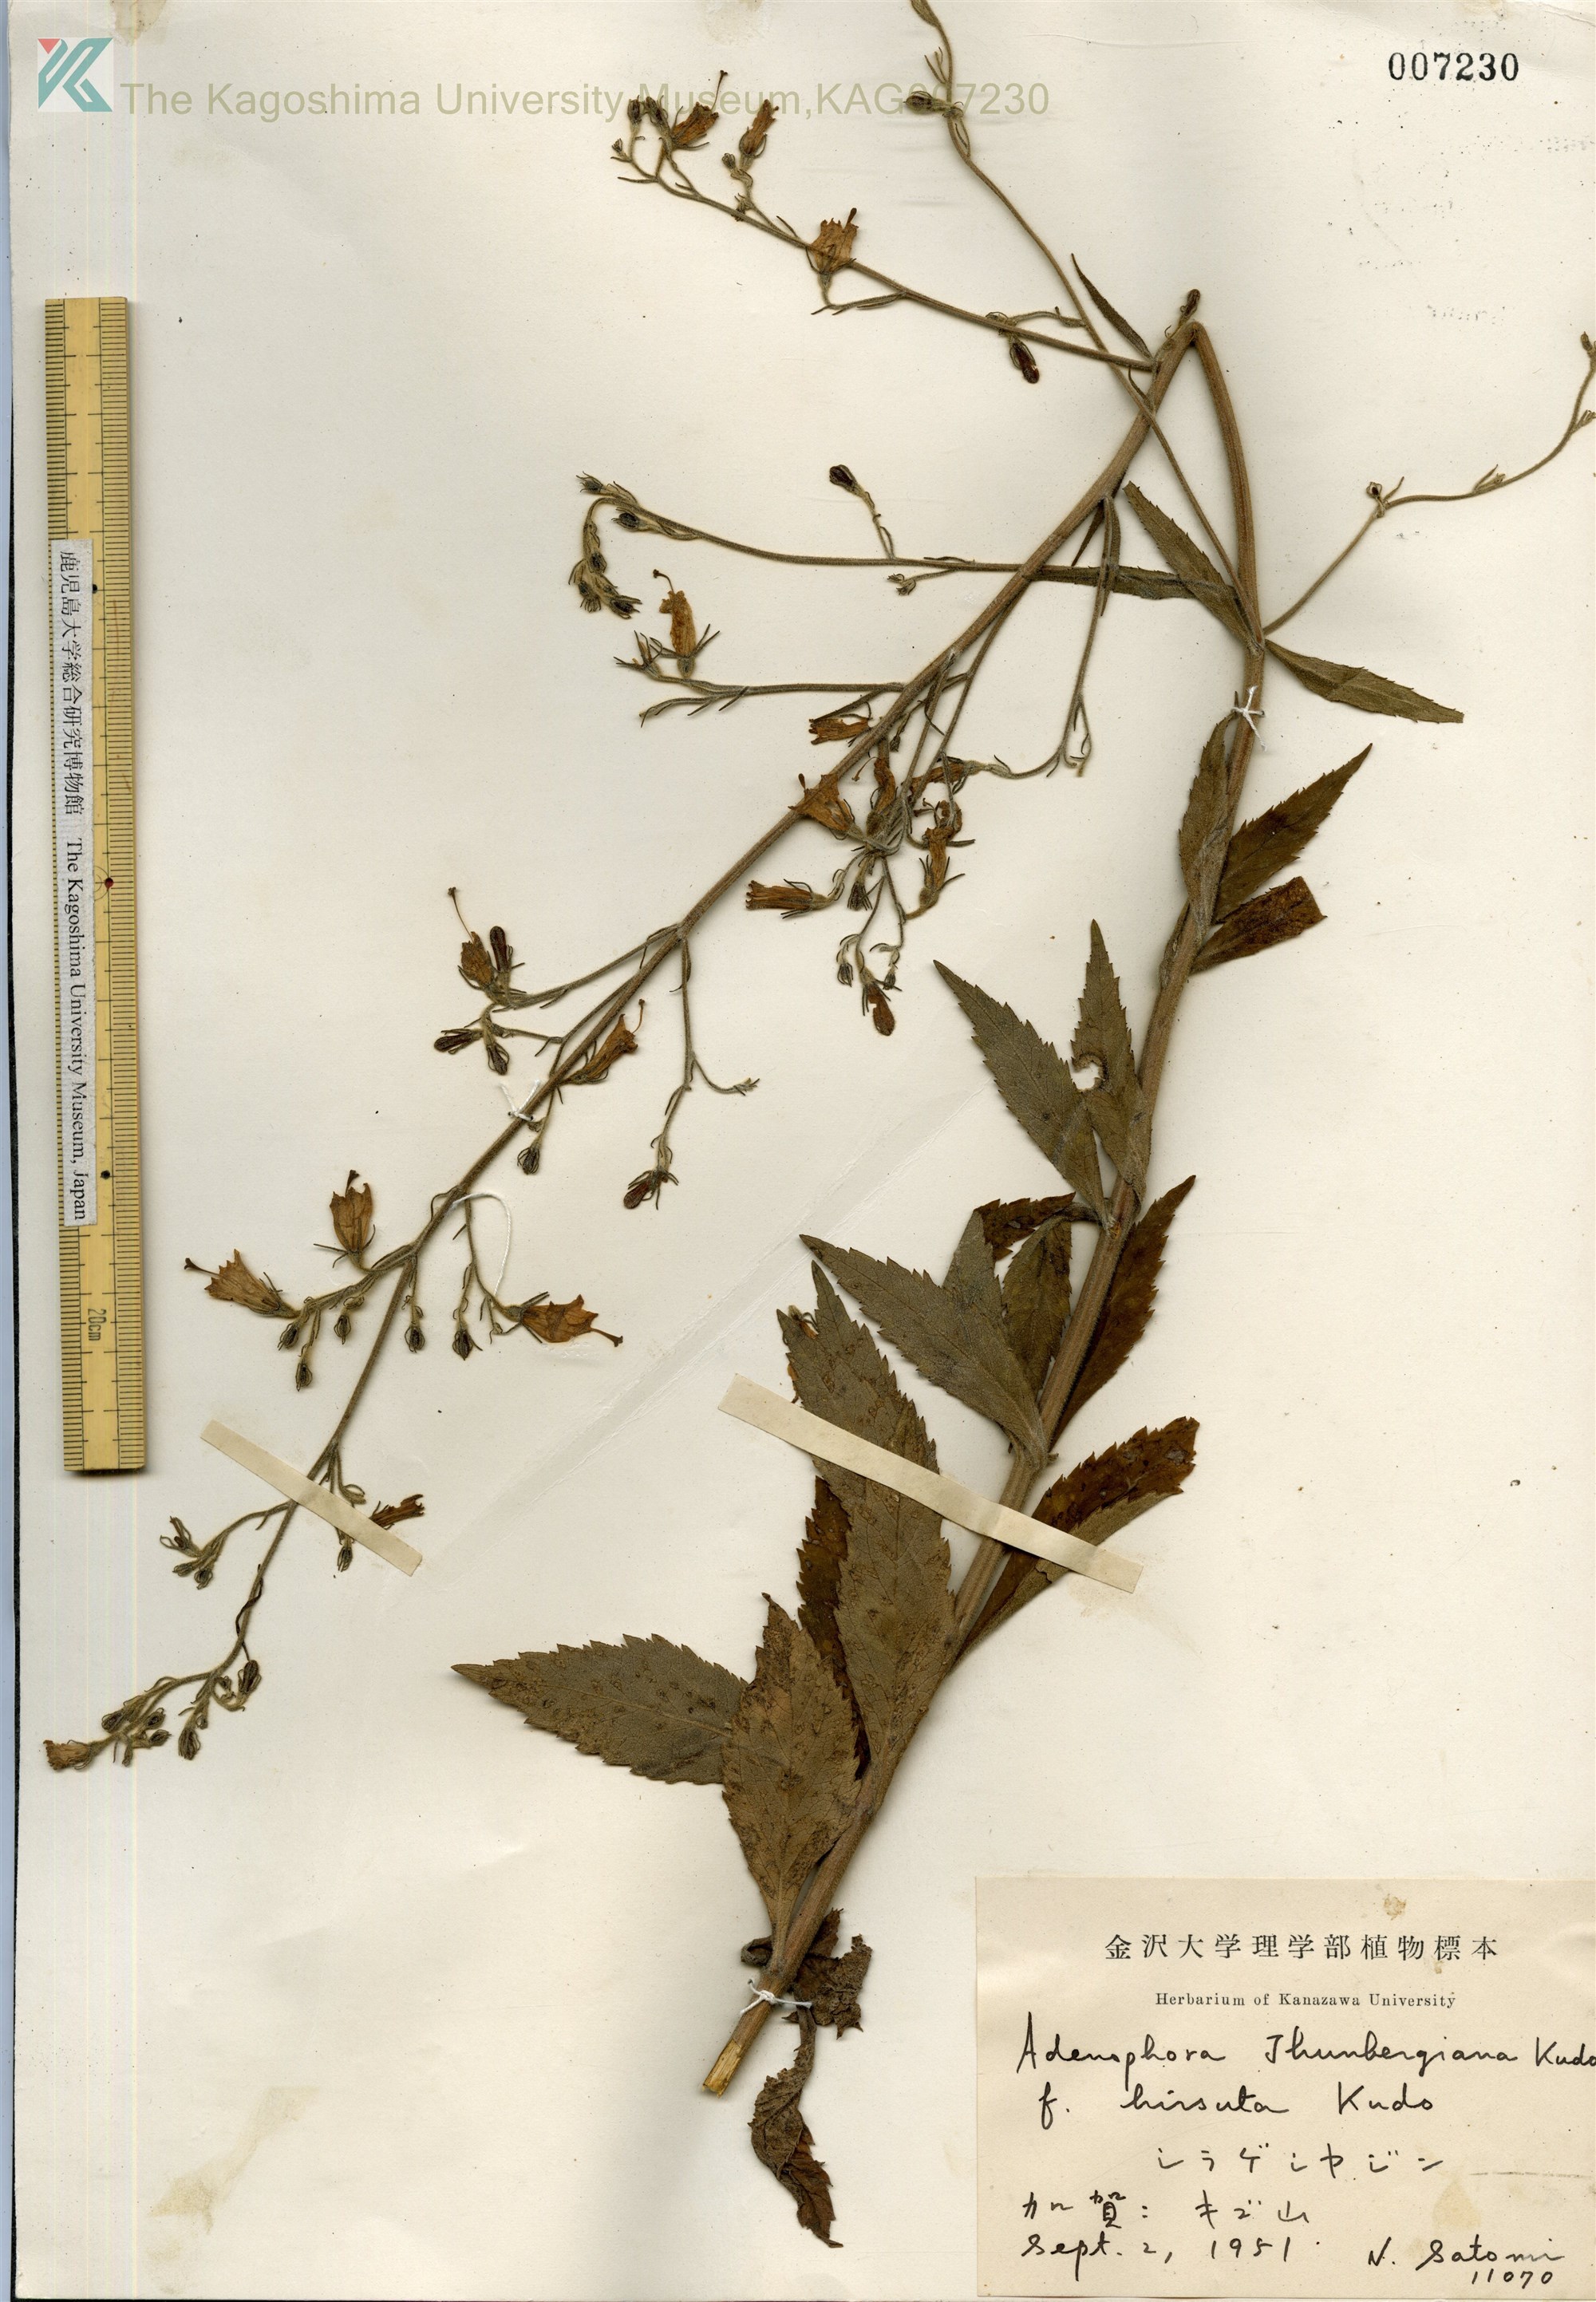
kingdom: Plantae
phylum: Tracheophyta
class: Magnoliopsida
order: Asterales
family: Campanulaceae
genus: Adenophora
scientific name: Adenophora triphylla
